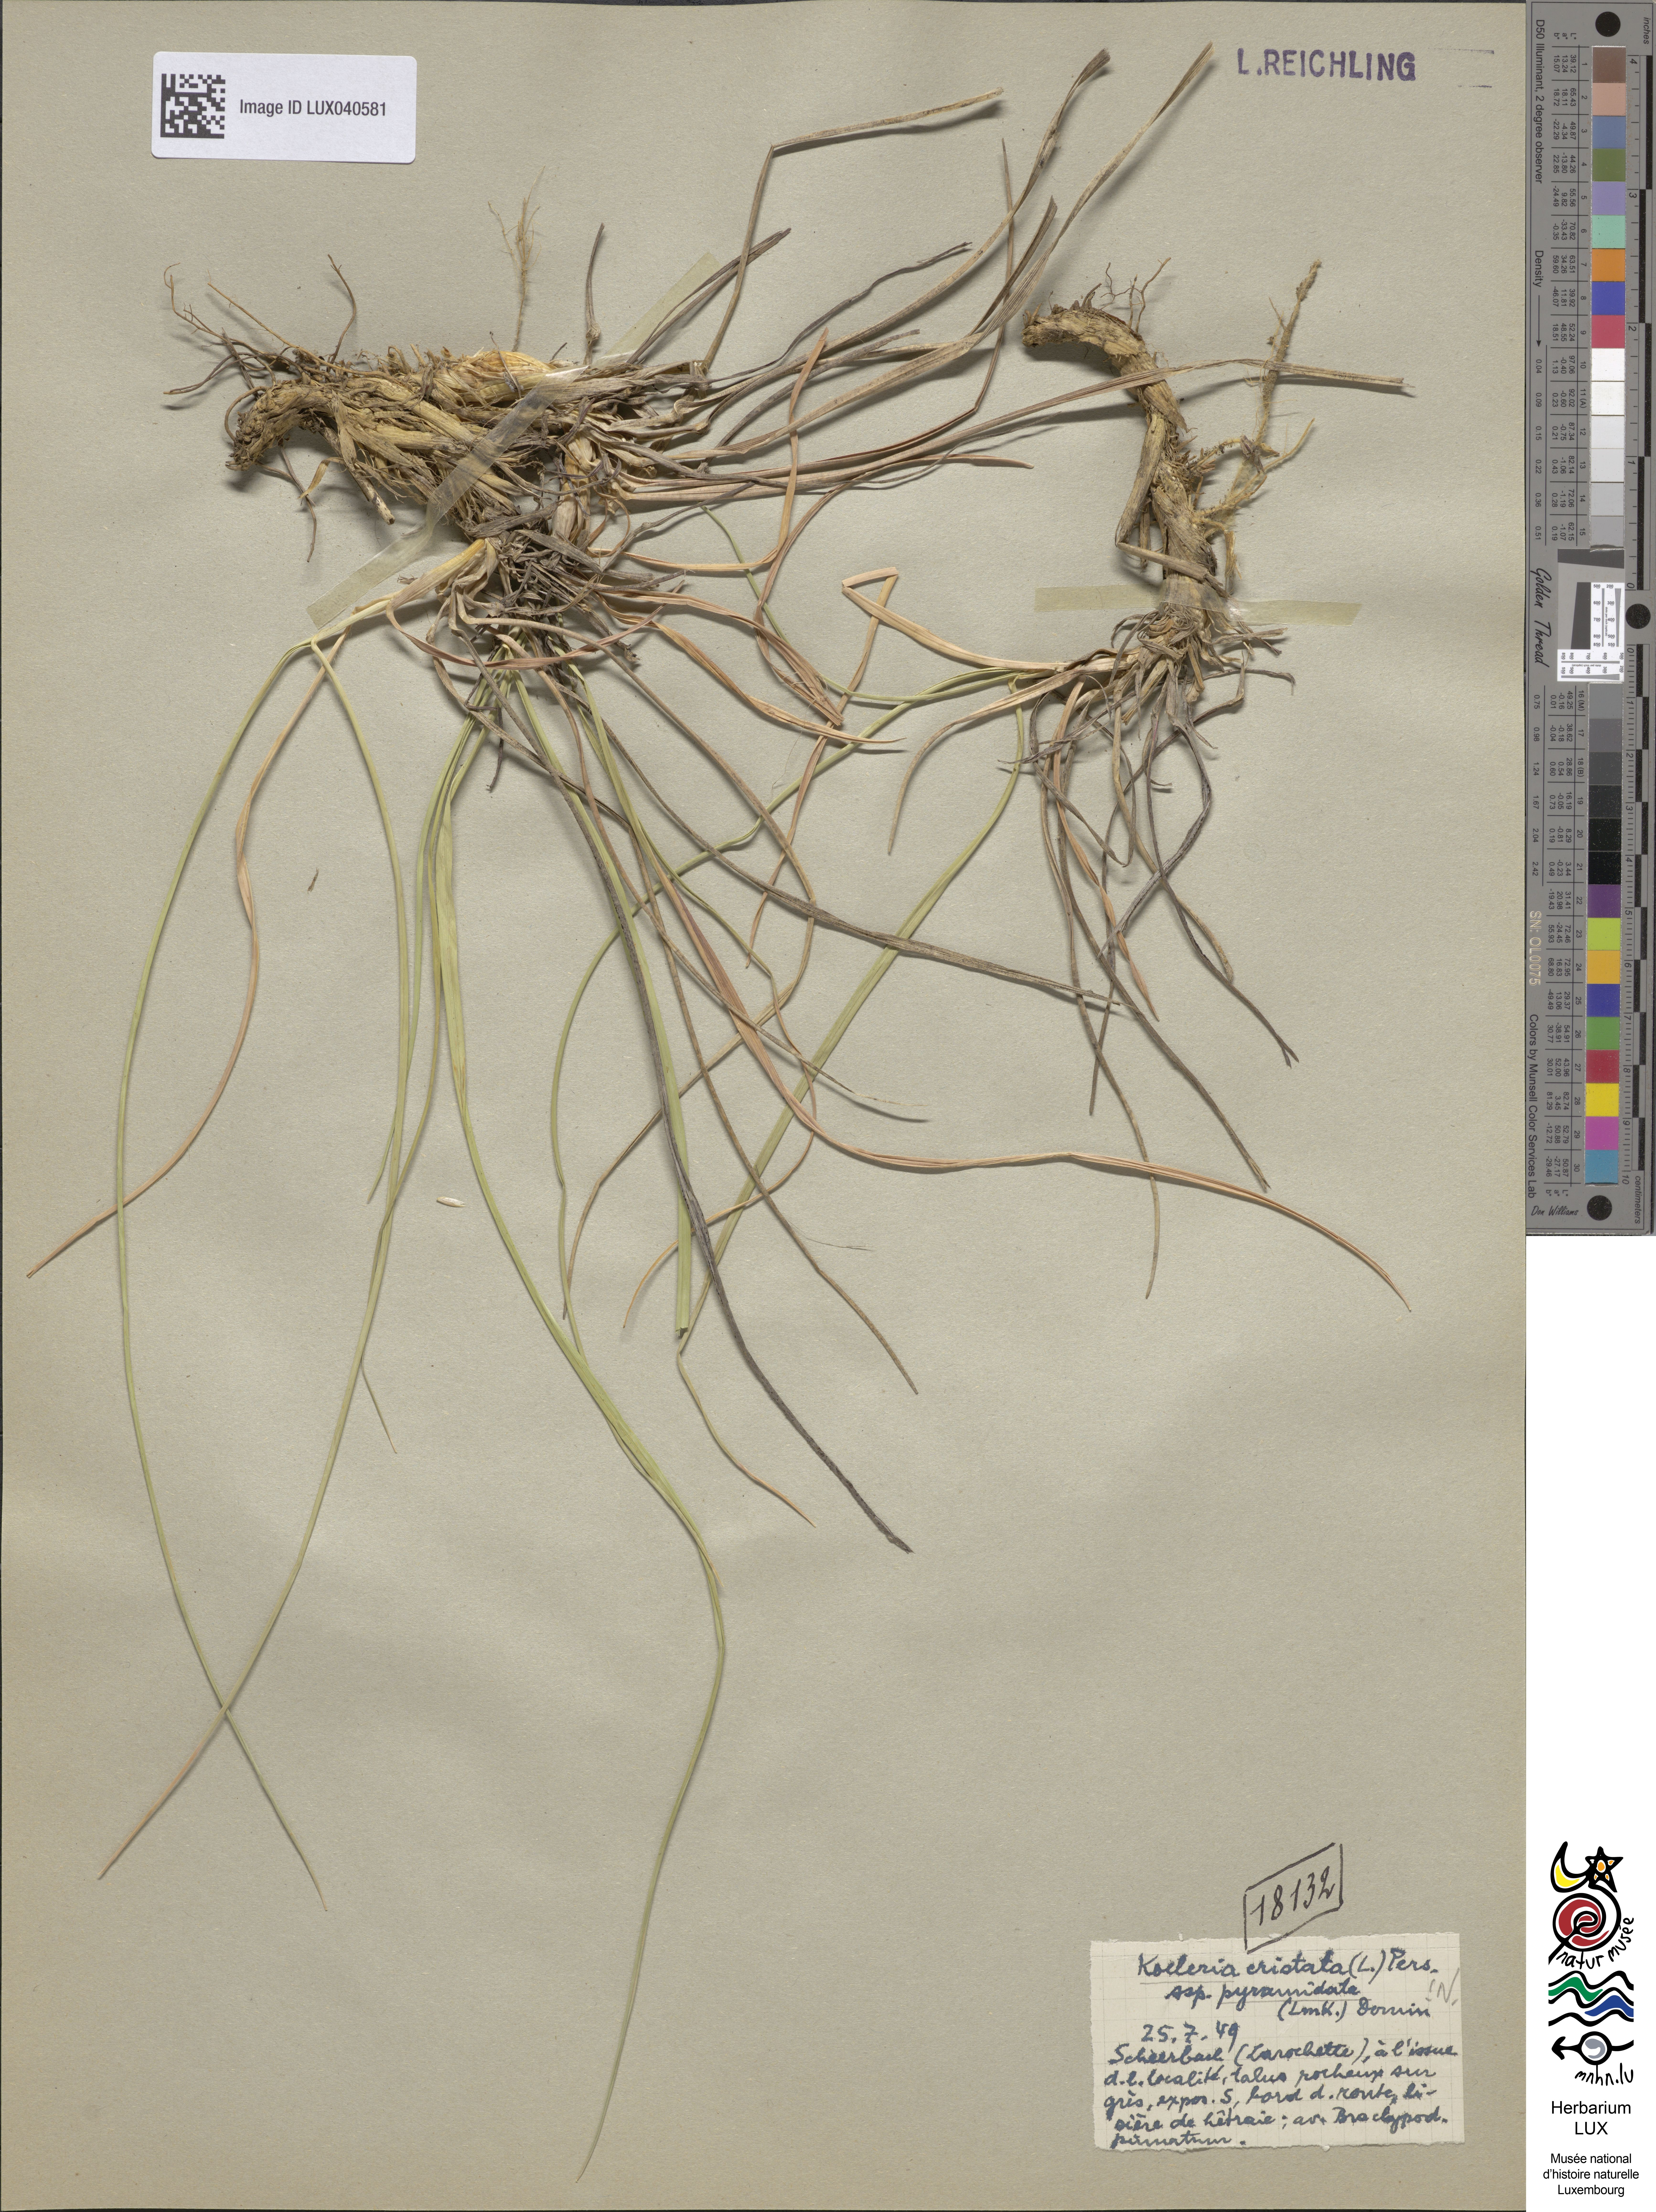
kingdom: Plantae
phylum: Tracheophyta
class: Liliopsida
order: Poales
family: Poaceae
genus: Koeleria
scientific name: Koeleria pyramidata
